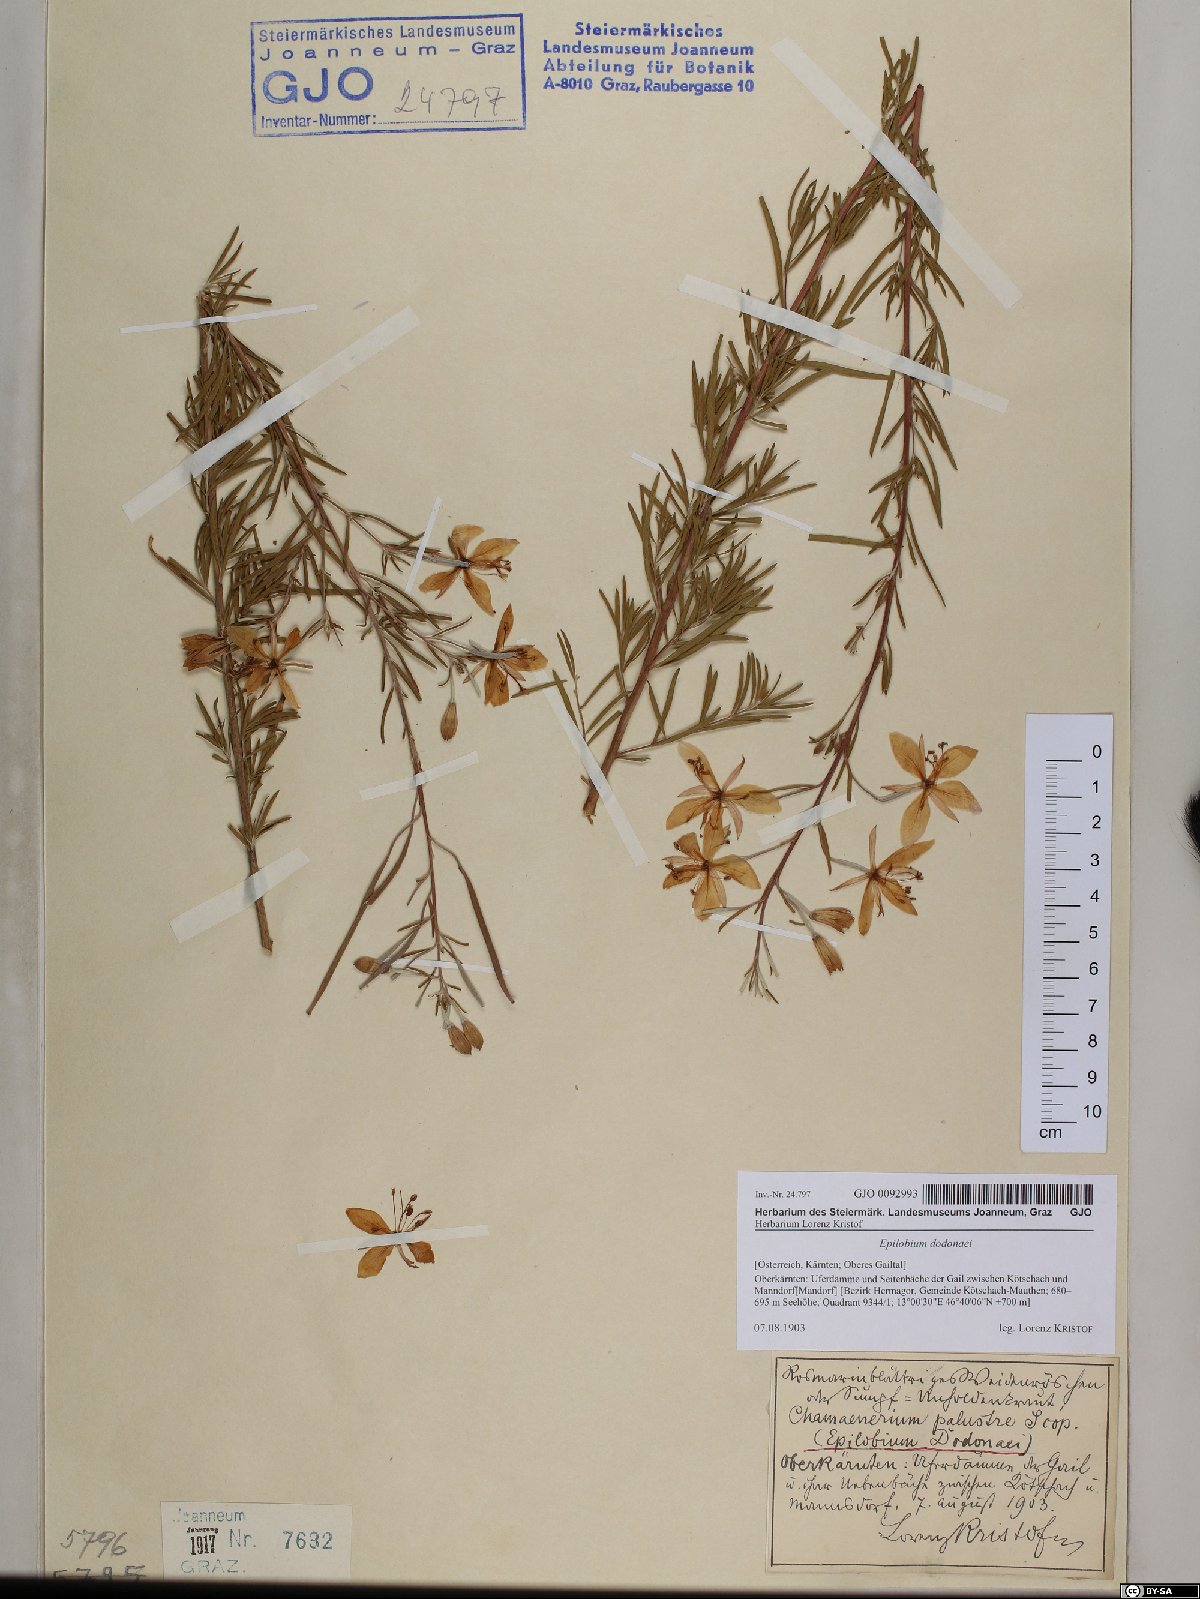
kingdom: Plantae
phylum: Tracheophyta
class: Magnoliopsida
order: Myrtales
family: Onagraceae
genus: Chamaenerion
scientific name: Chamaenerion dodonaei
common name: Rosemary-leaved willowherb
